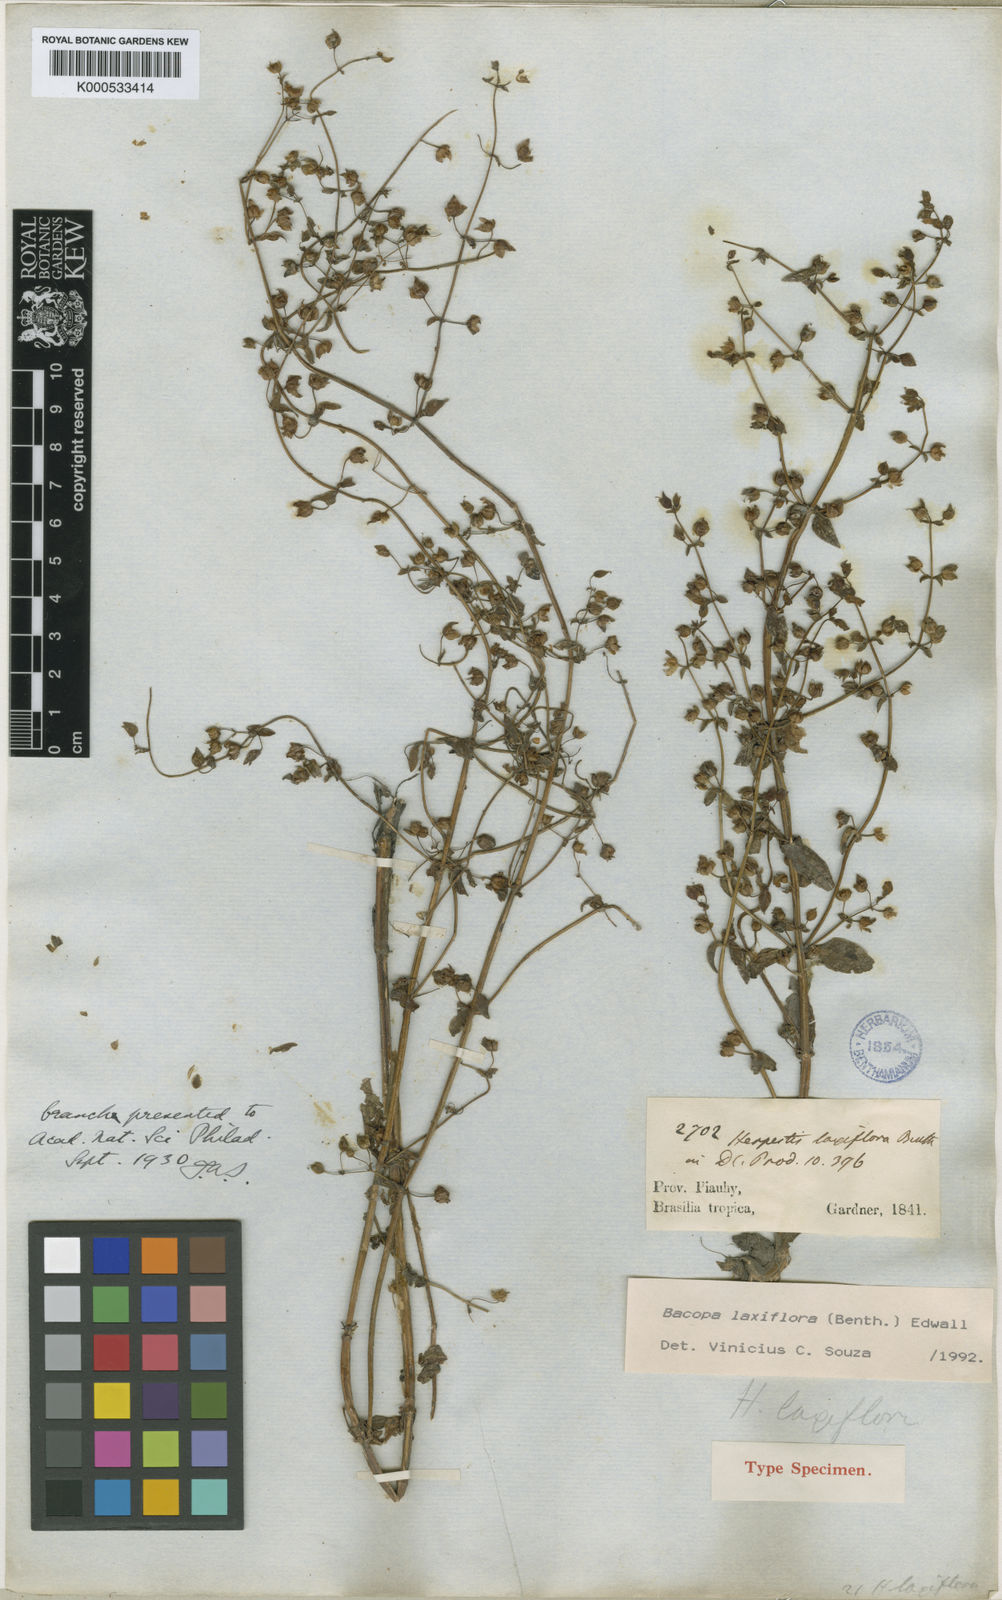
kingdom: Plantae
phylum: Tracheophyta
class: Magnoliopsida
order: Lamiales
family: Plantaginaceae
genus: Bacopa
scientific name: Bacopa laxiflora
